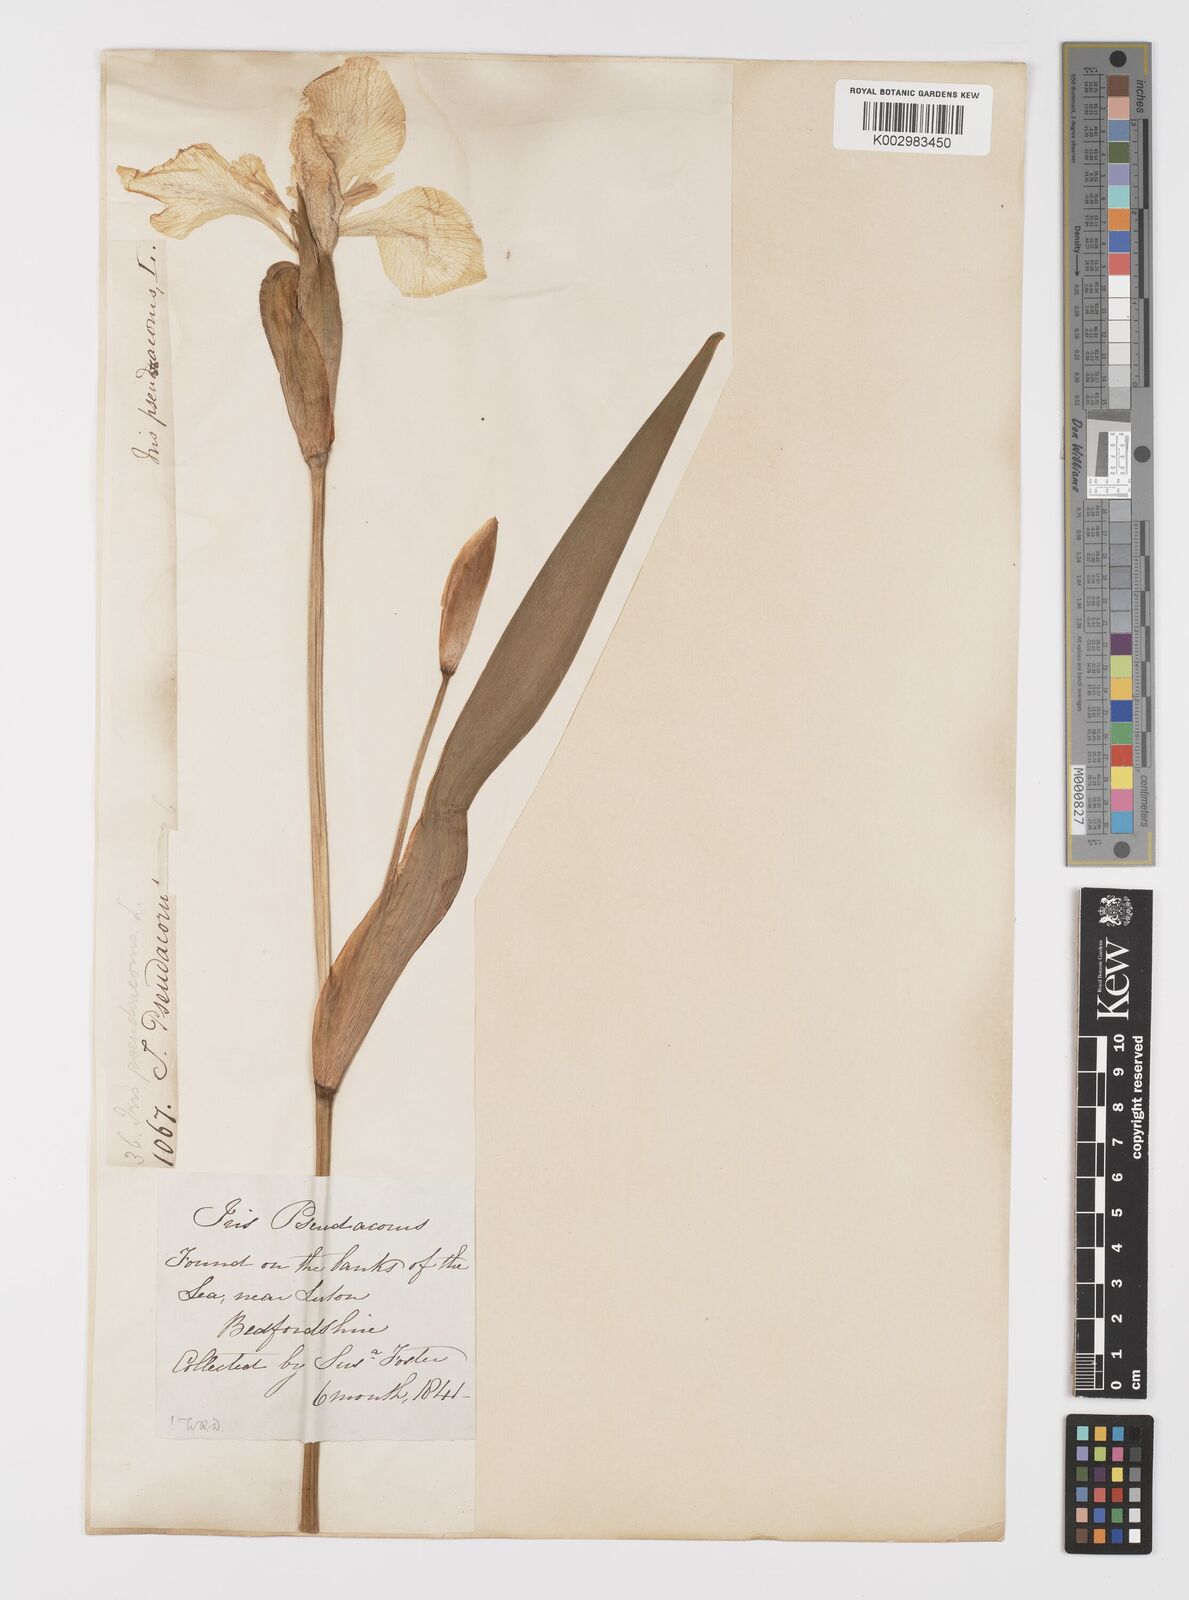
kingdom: Plantae
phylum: Tracheophyta
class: Liliopsida
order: Asparagales
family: Iridaceae
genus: Iris
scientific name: Iris pseudacorus
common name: Yellow flag
